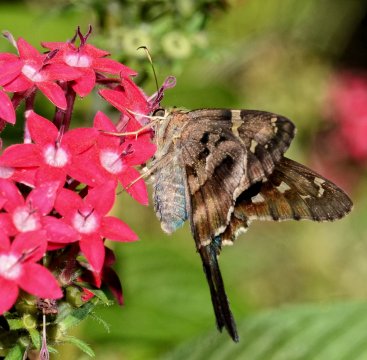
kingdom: Animalia
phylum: Arthropoda
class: Insecta
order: Lepidoptera
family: Hesperiidae
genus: Urbanus
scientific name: Urbanus proteus
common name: Long-tailed Skipper
